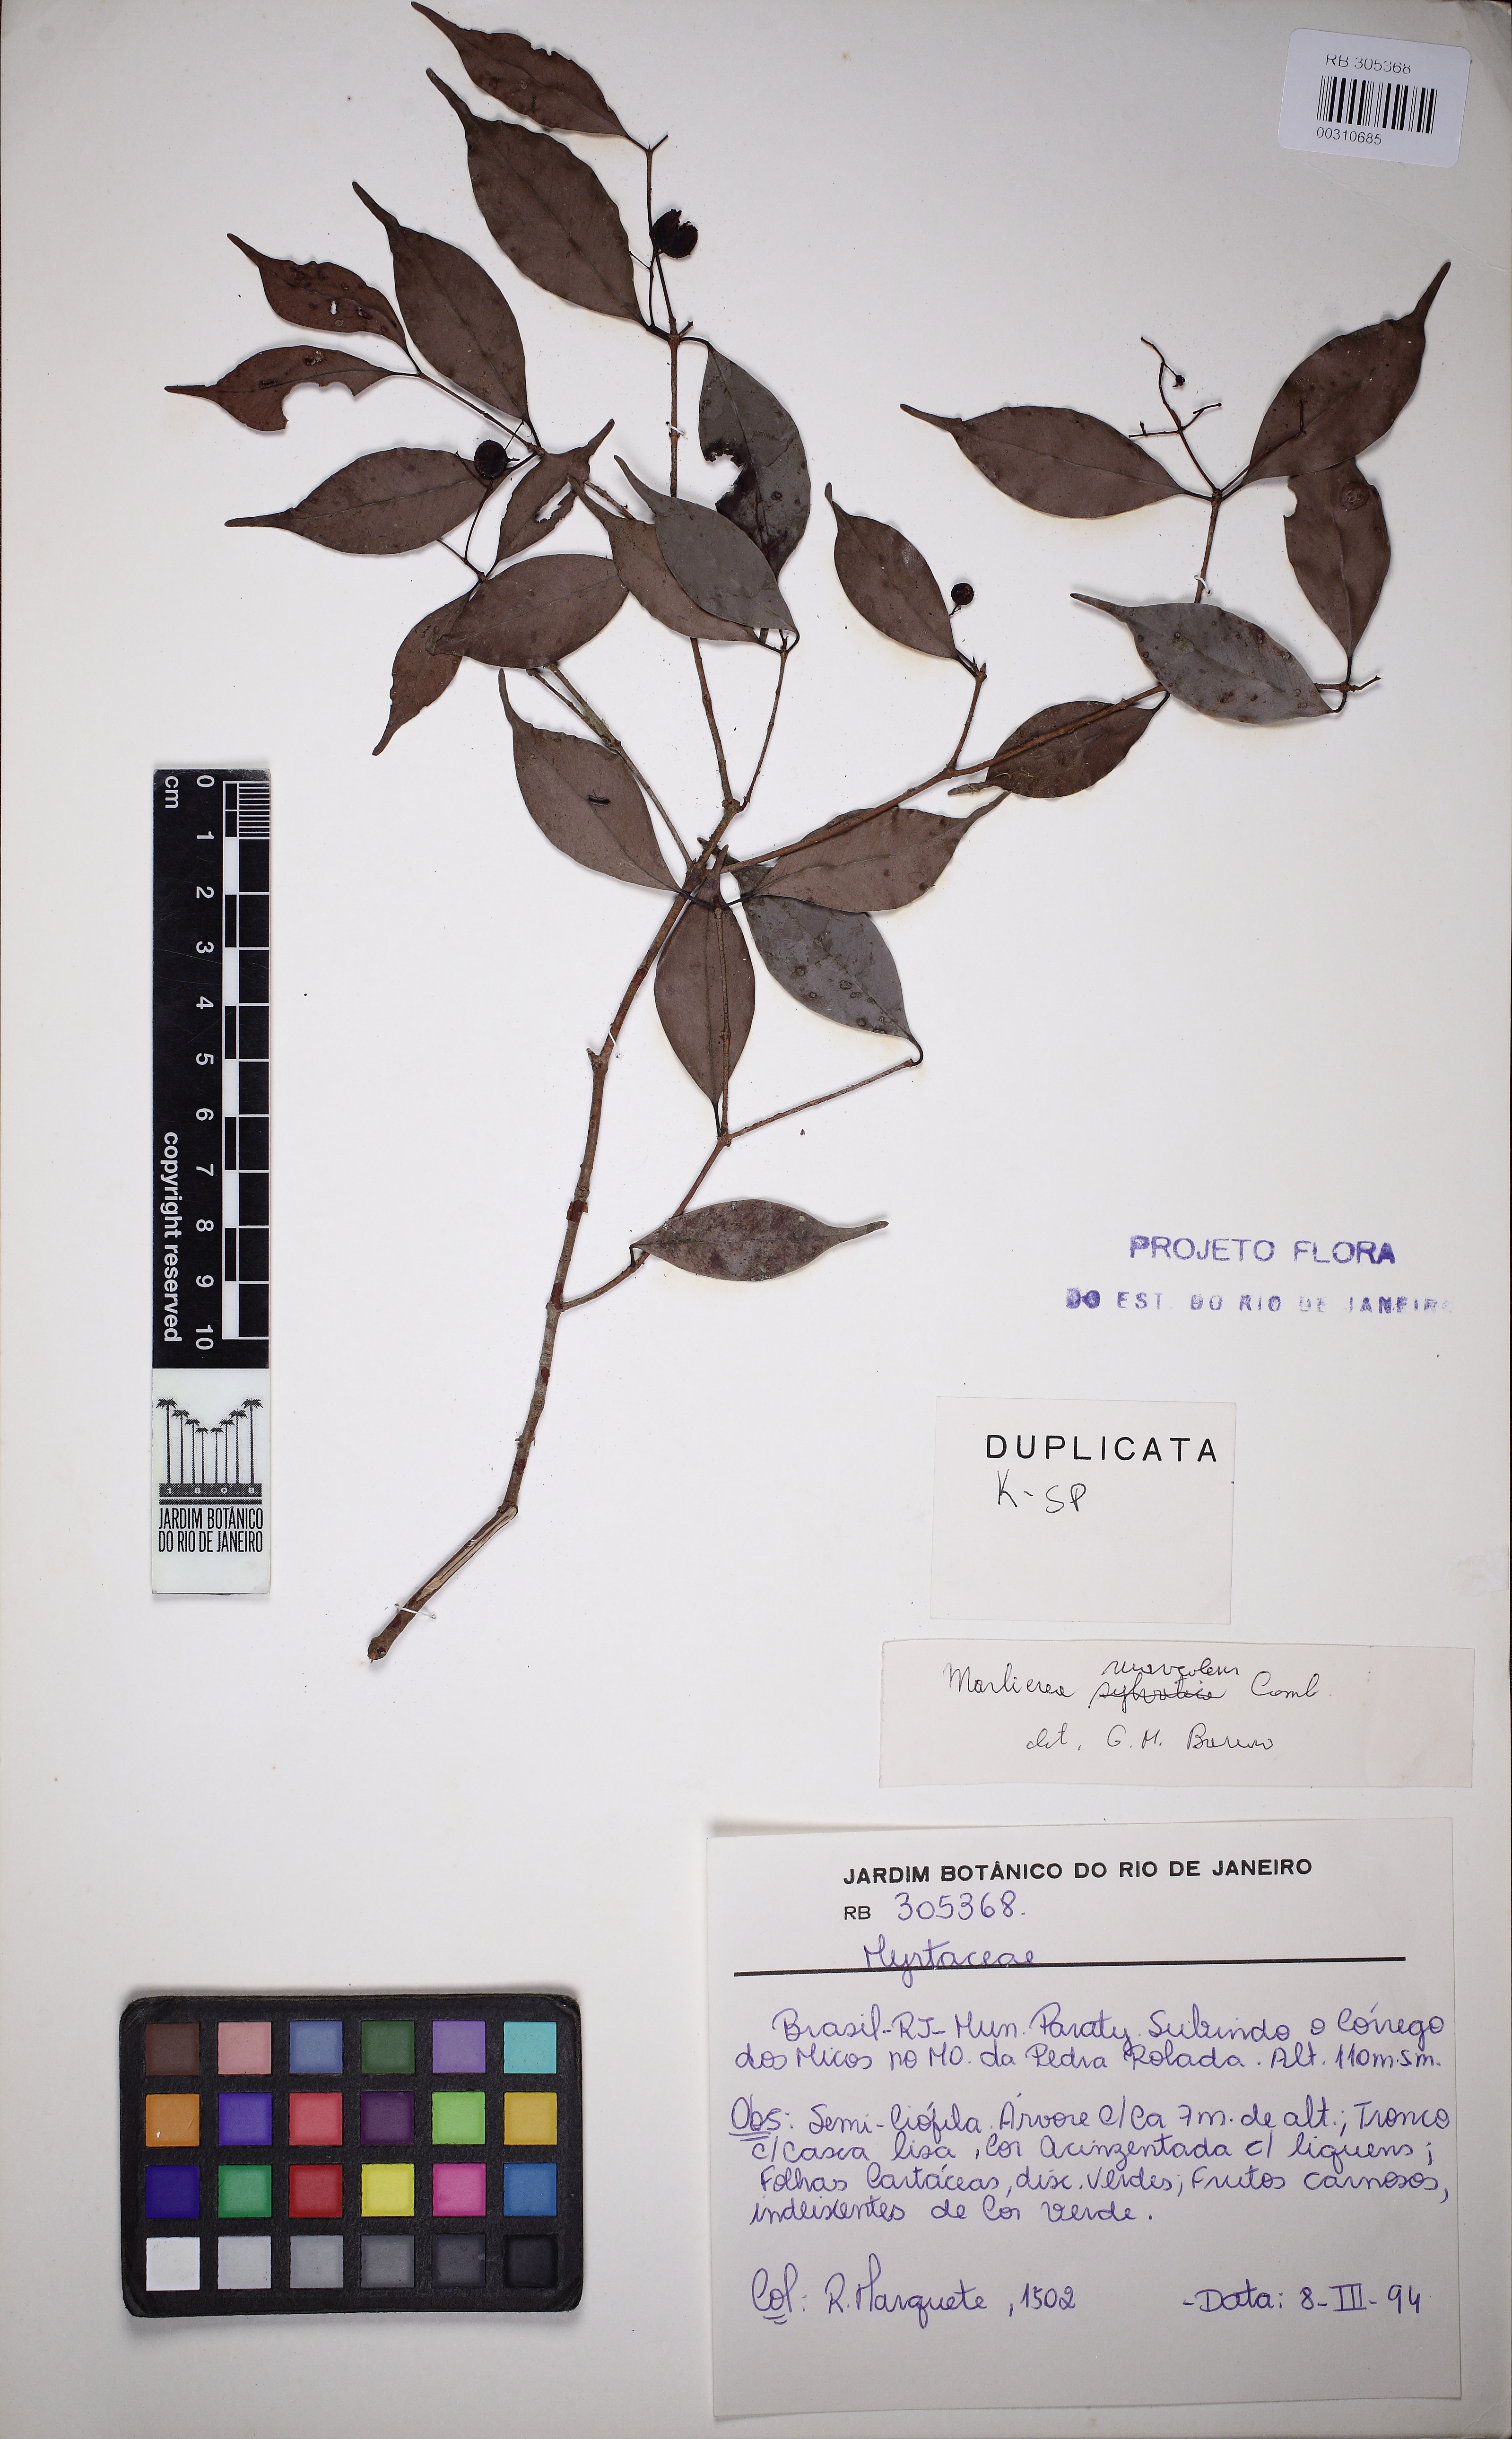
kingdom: Plantae
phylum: Tracheophyta
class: Magnoliopsida
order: Myrtales
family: Myrtaceae
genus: Myrcia
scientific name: Myrcia neosuaveolens
